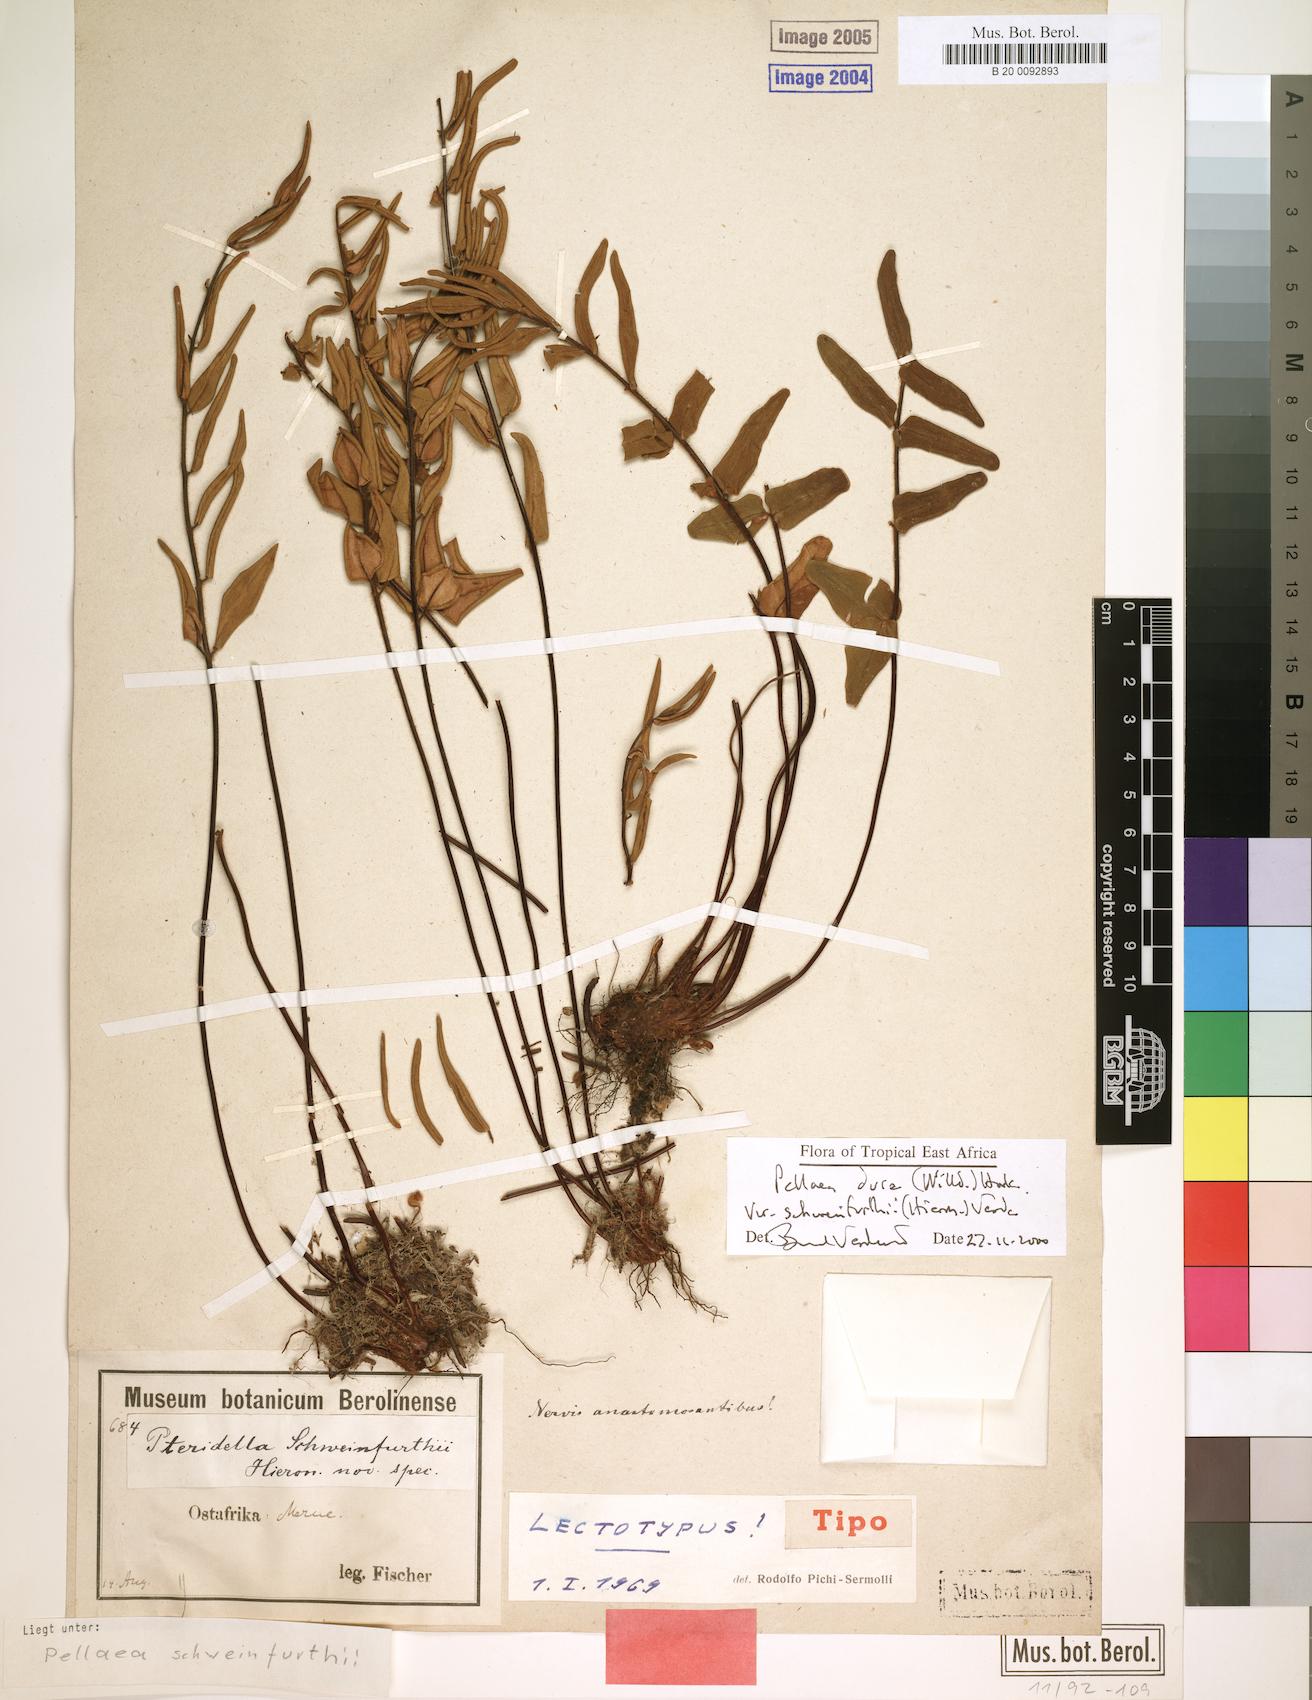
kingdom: Plantae
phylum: Tracheophyta
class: Polypodiopsida
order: Polypodiales
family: Pteridaceae
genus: Pellaea
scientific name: Pellaea dura
